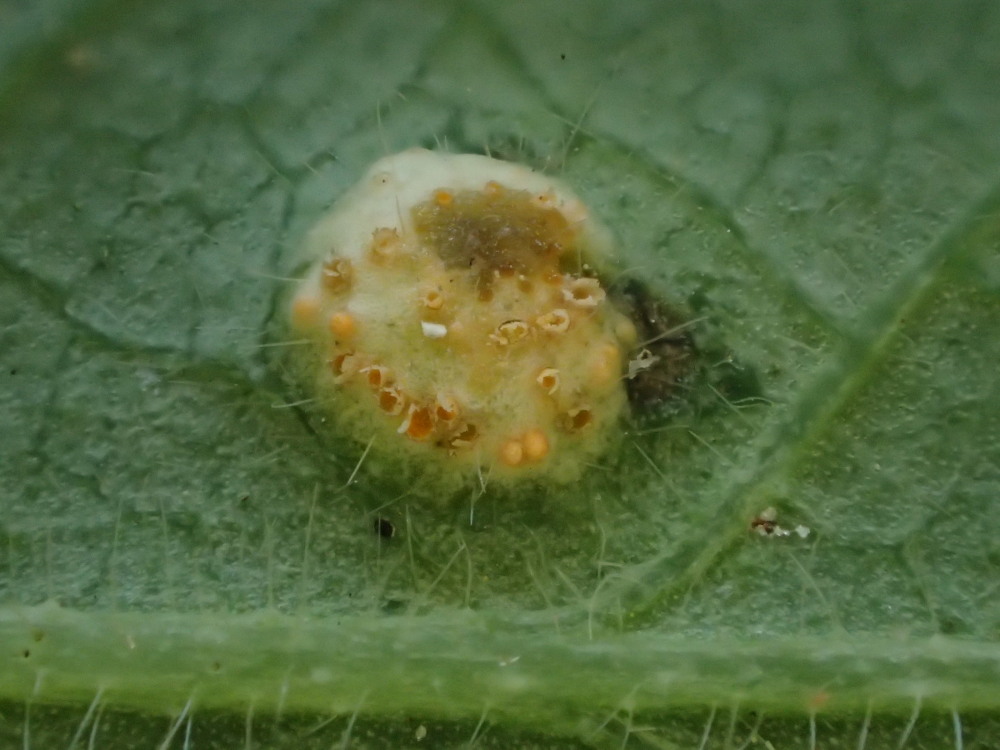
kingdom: Fungi
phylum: Basidiomycota
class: Pucciniomycetes
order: Pucciniales
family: Pucciniaceae
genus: Puccinia
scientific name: Puccinia festucae
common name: gedeblad-tvecellerust
